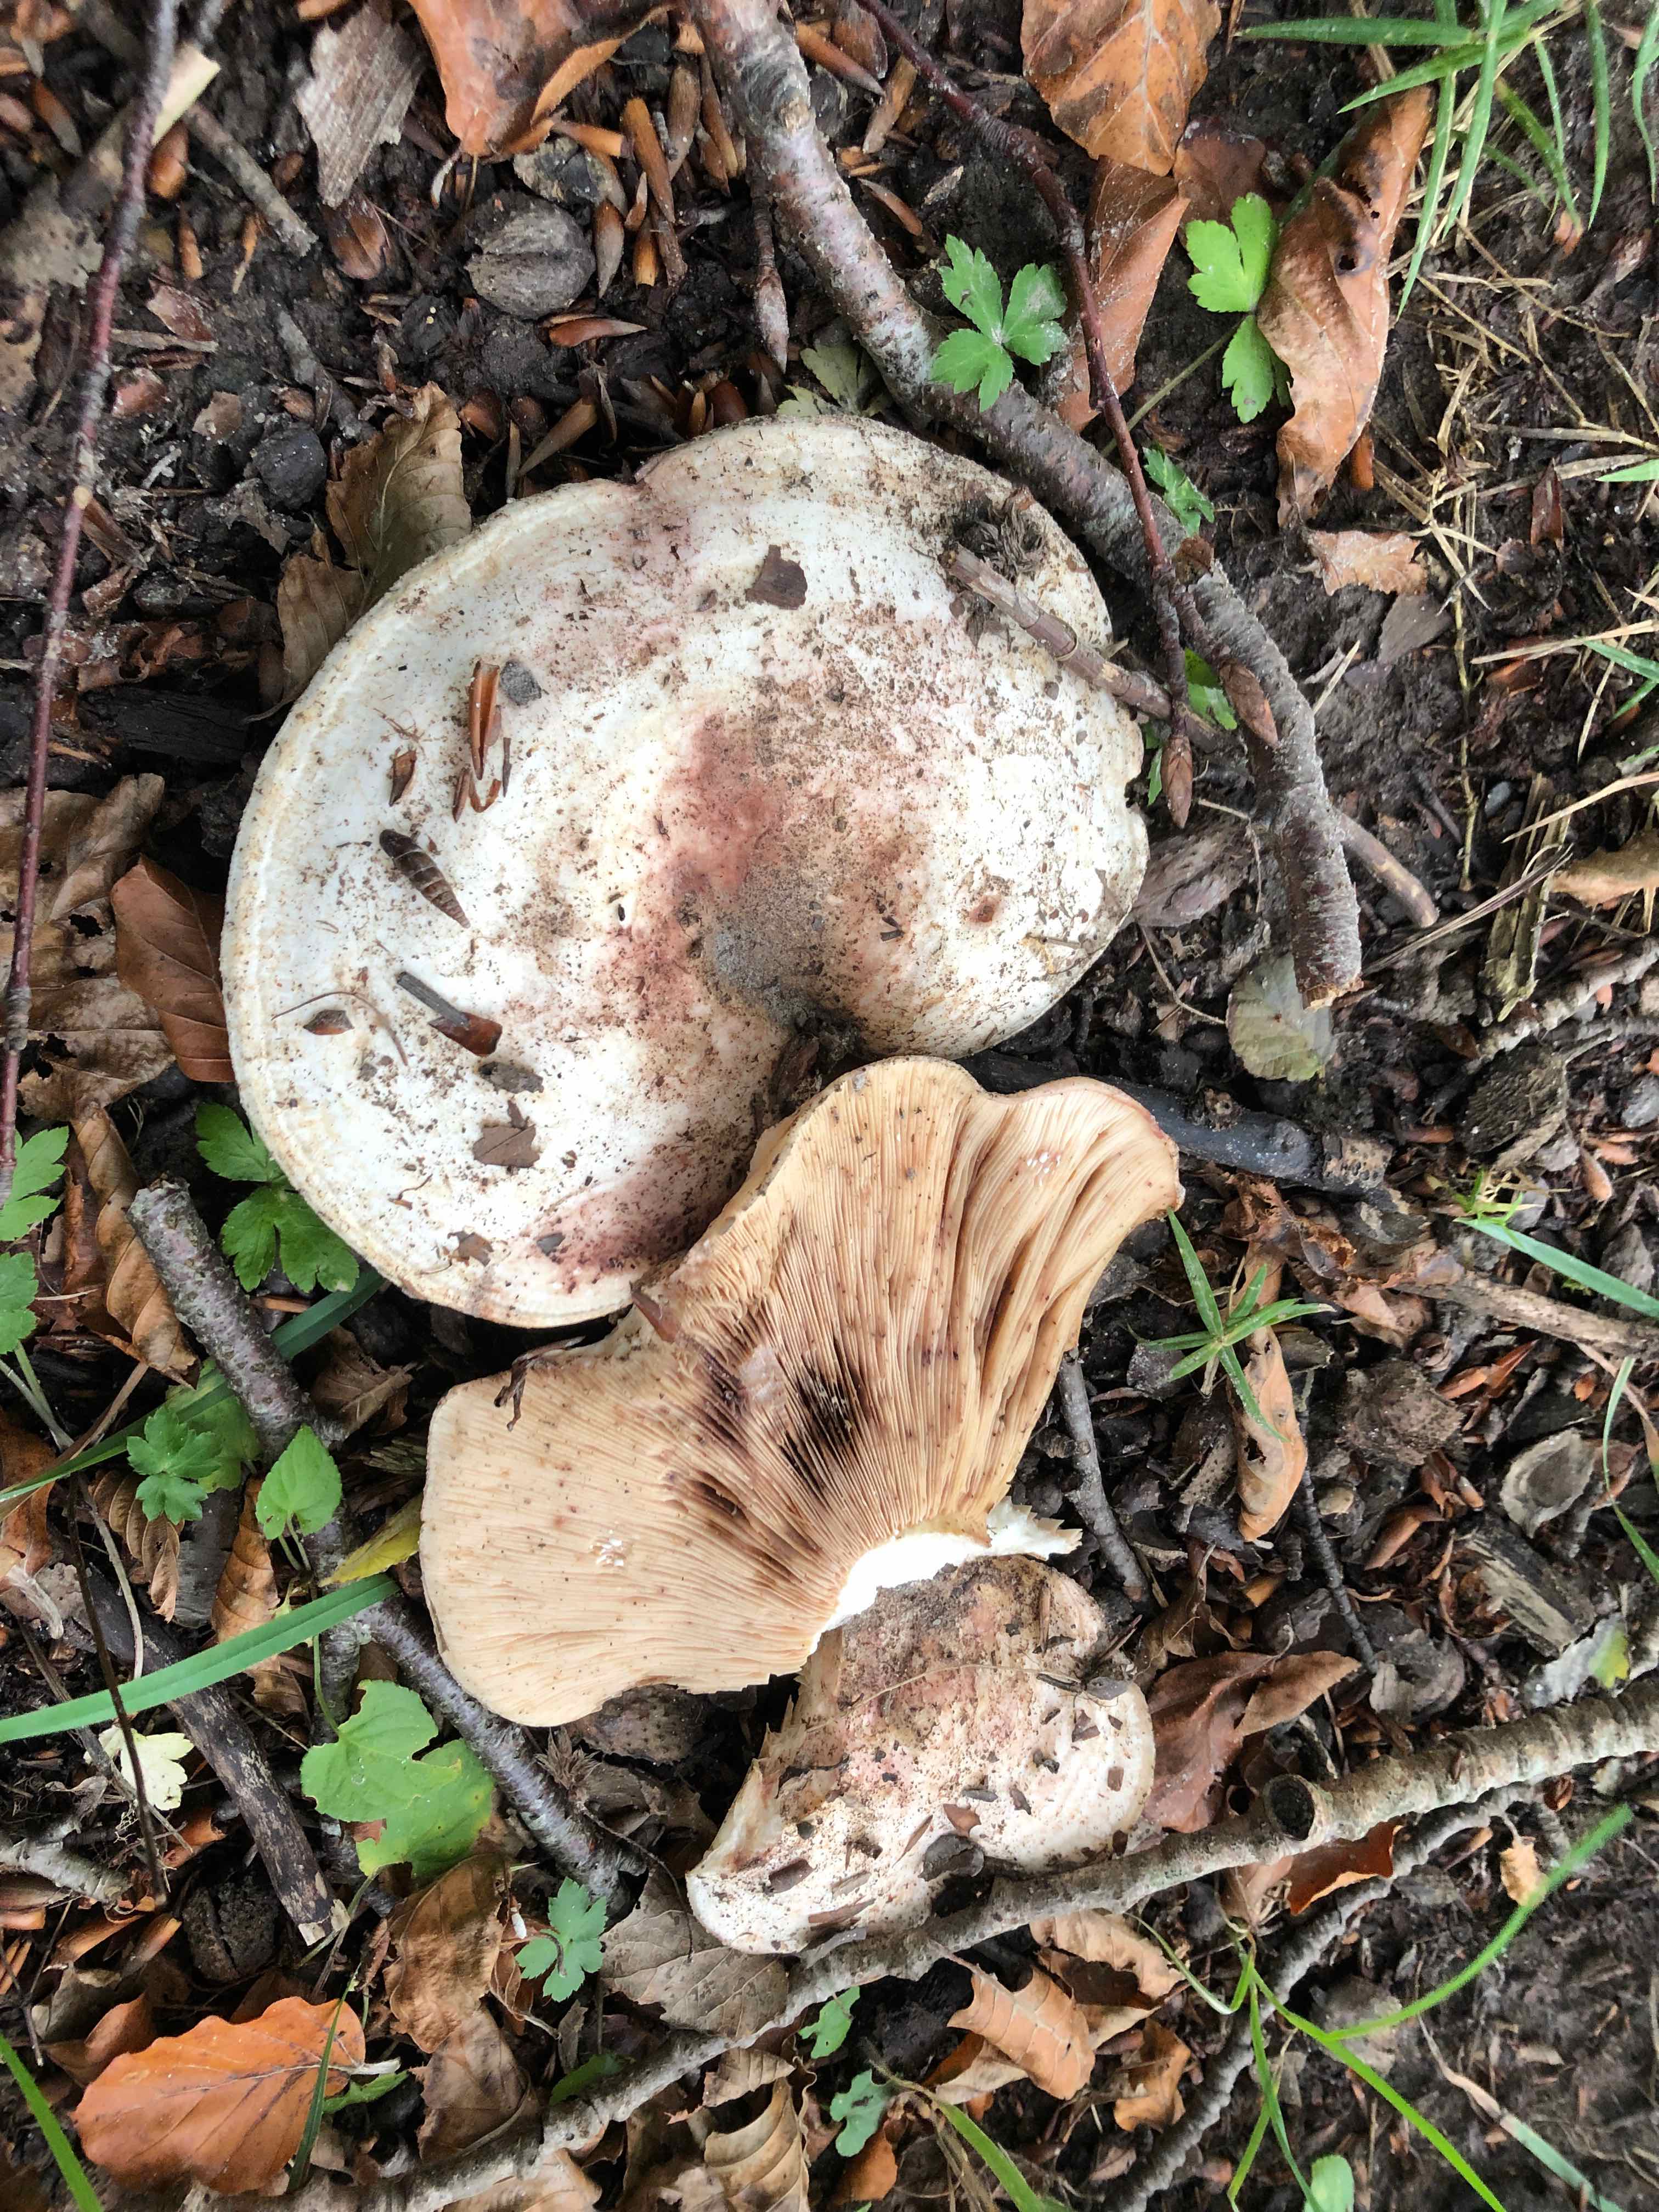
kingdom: Fungi
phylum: Basidiomycota
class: Agaricomycetes
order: Russulales
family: Russulaceae
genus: Lactarius
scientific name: Lactarius controversus
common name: rosabladet mælkehat
